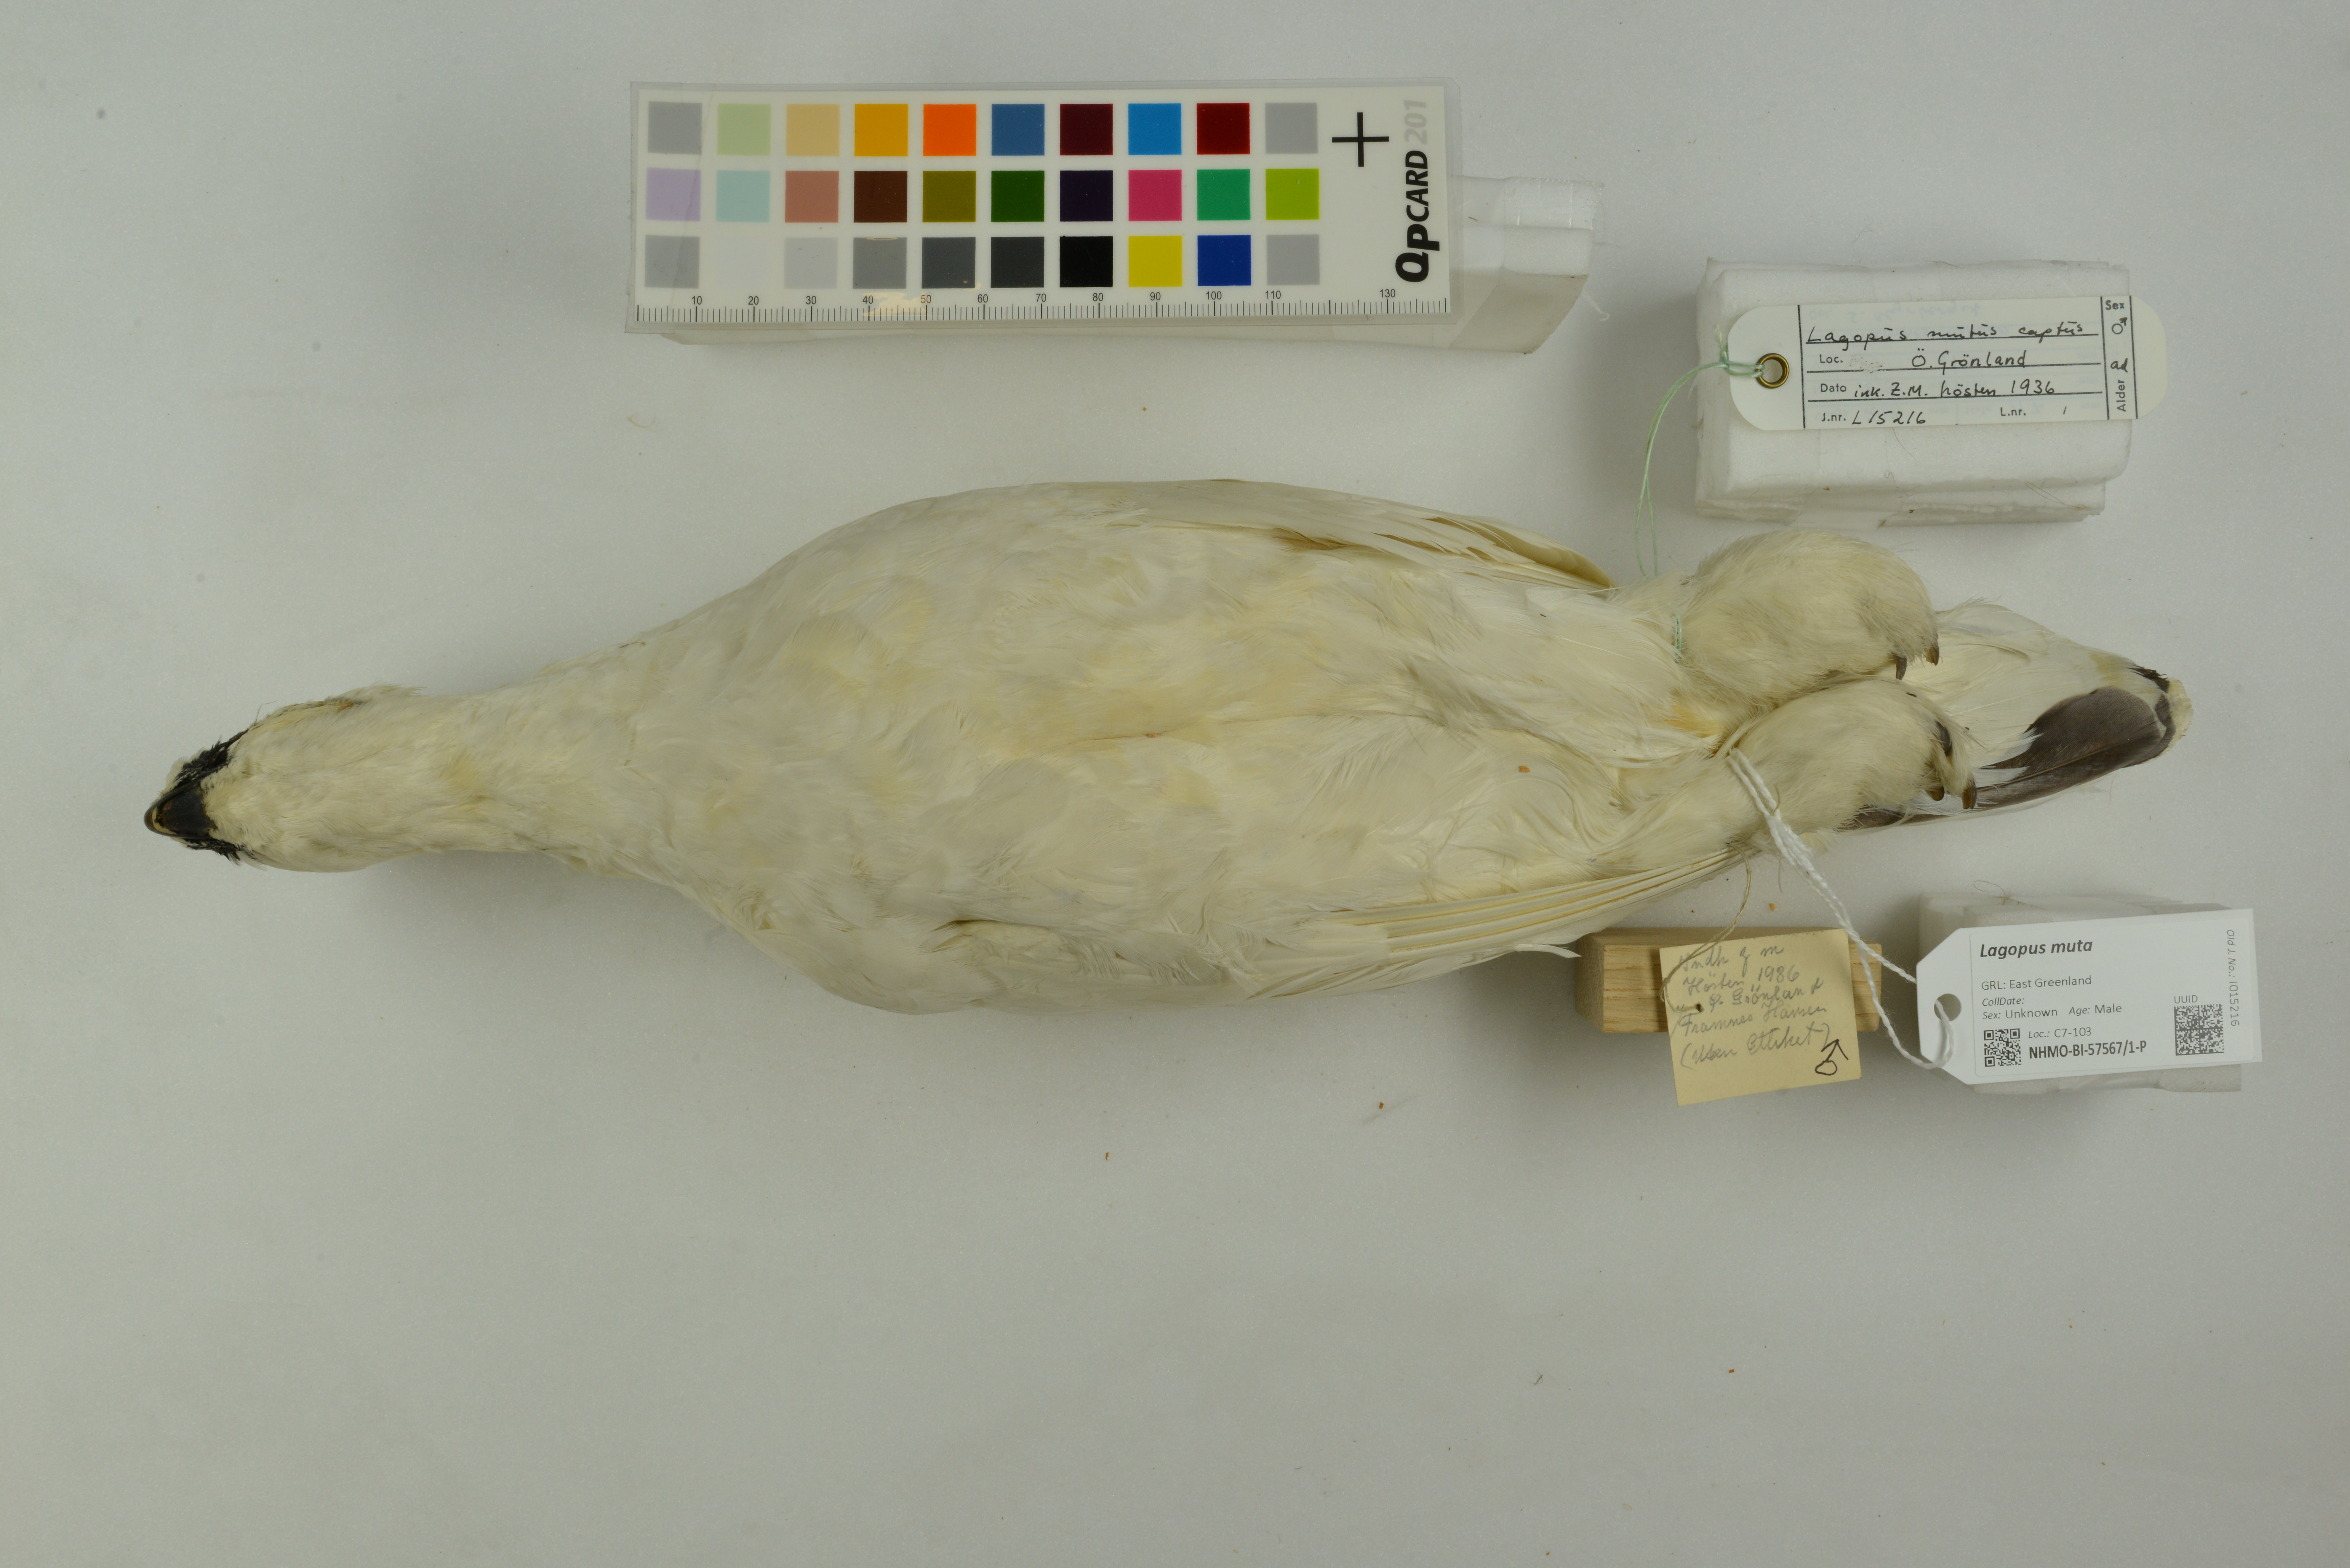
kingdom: Animalia
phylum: Chordata
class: Aves
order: Galliformes
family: Phasianidae
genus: Lagopus
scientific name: Lagopus muta
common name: Rock ptarmigan
